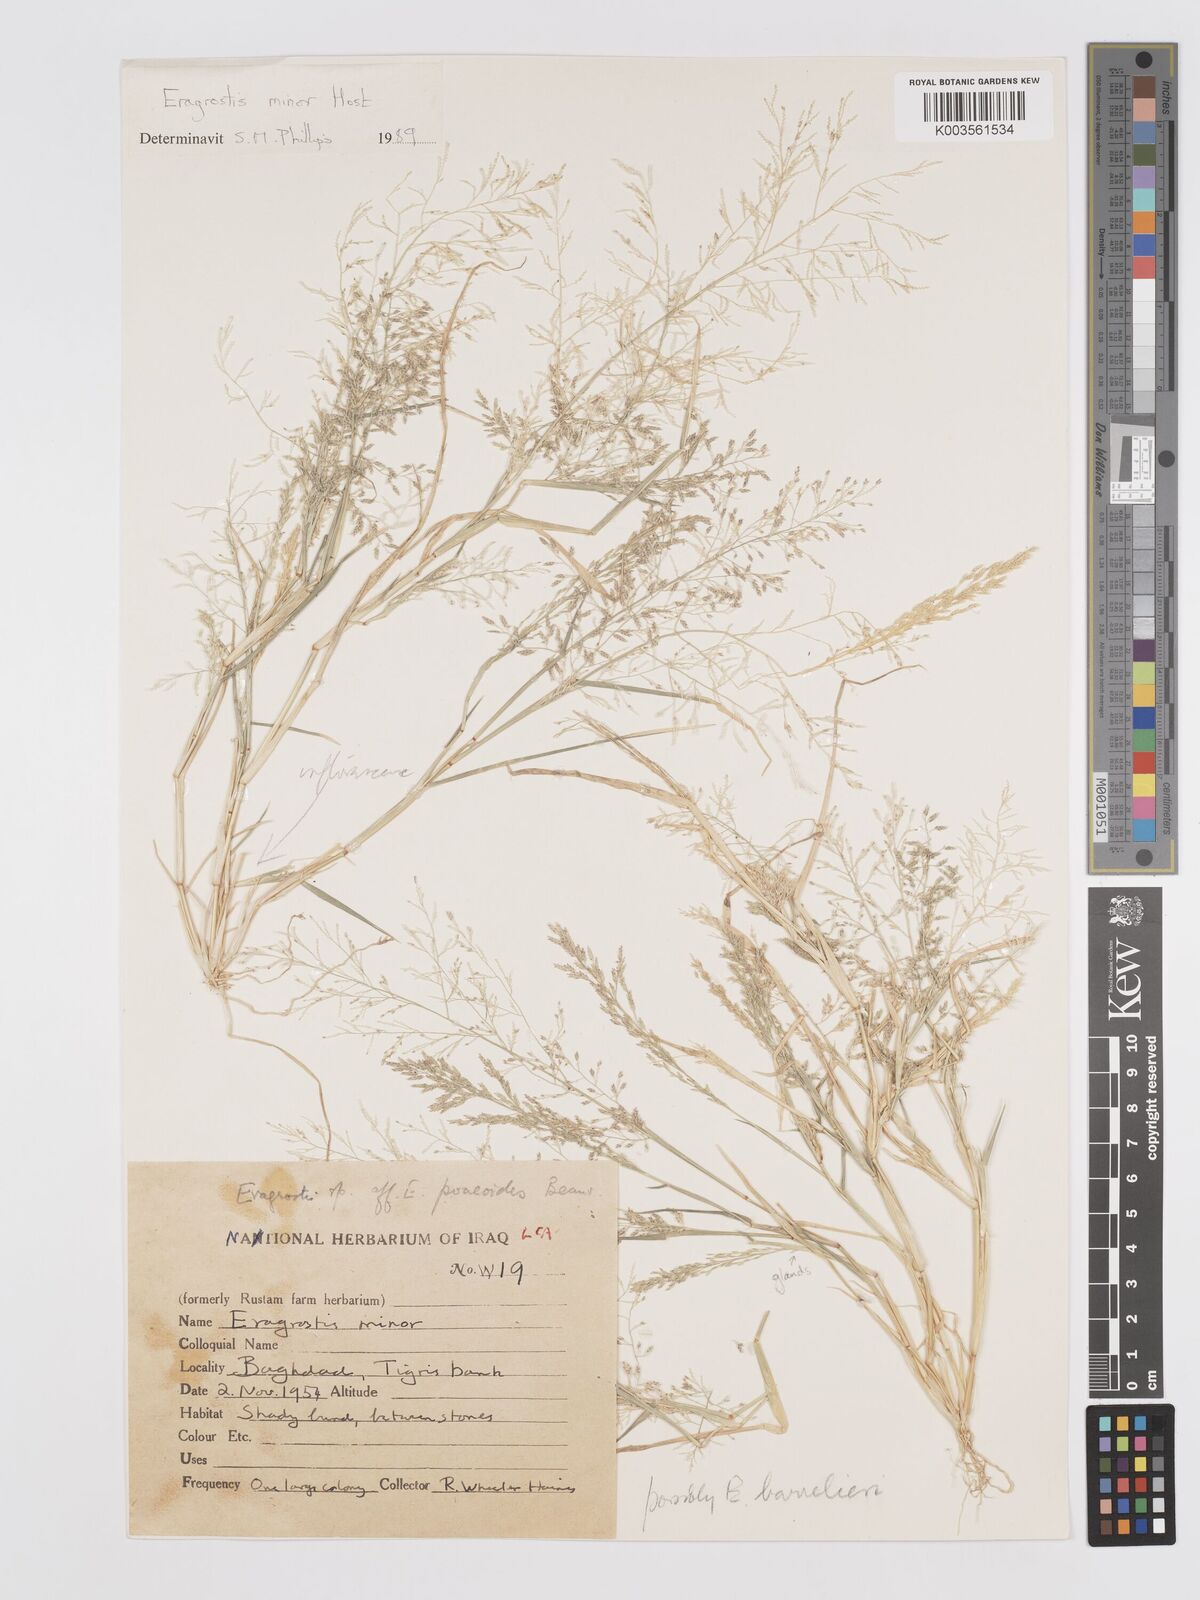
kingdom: Plantae
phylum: Tracheophyta
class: Liliopsida
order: Poales
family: Poaceae
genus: Eragrostis
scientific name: Eragrostis minor
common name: Small love-grass
